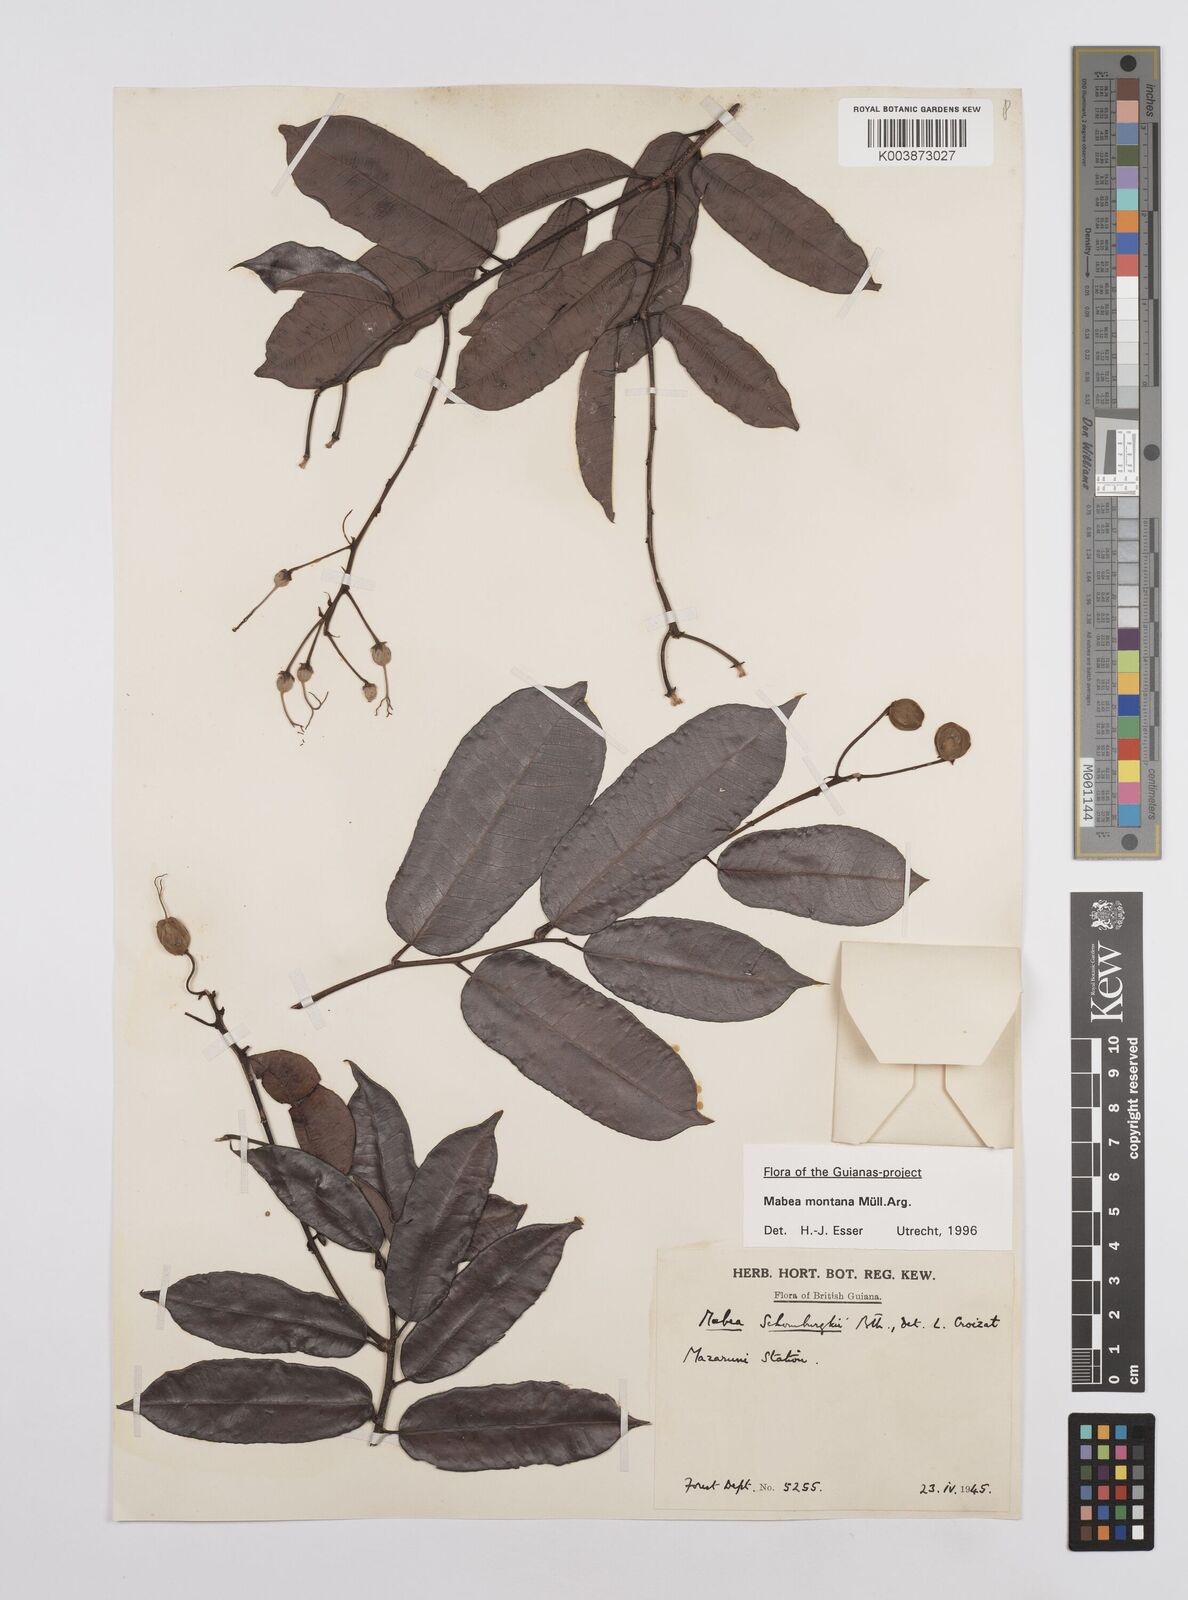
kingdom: Plantae
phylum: Tracheophyta
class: Magnoliopsida
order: Malpighiales
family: Euphorbiaceae
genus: Mabea
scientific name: Mabea montana
